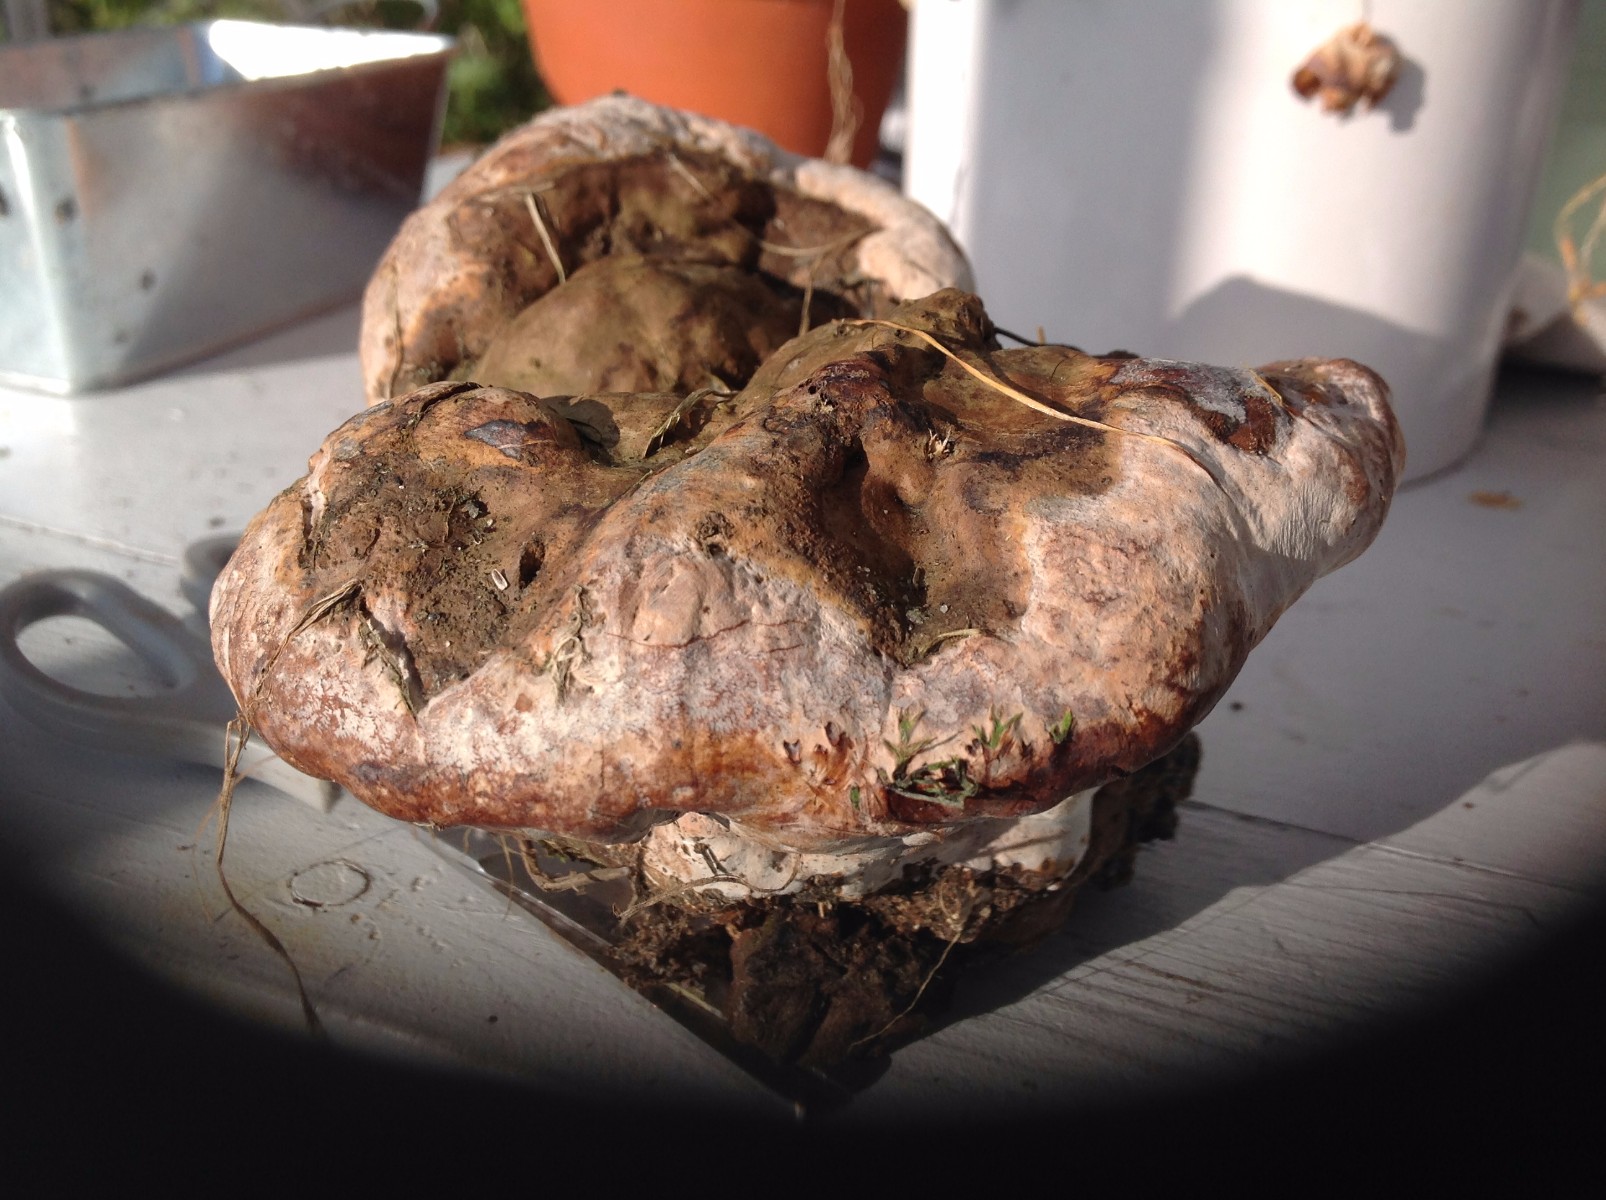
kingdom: Fungi
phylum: Basidiomycota
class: Agaricomycetes
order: Polyporales
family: Polyporaceae
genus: Ganoderma
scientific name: Ganoderma
